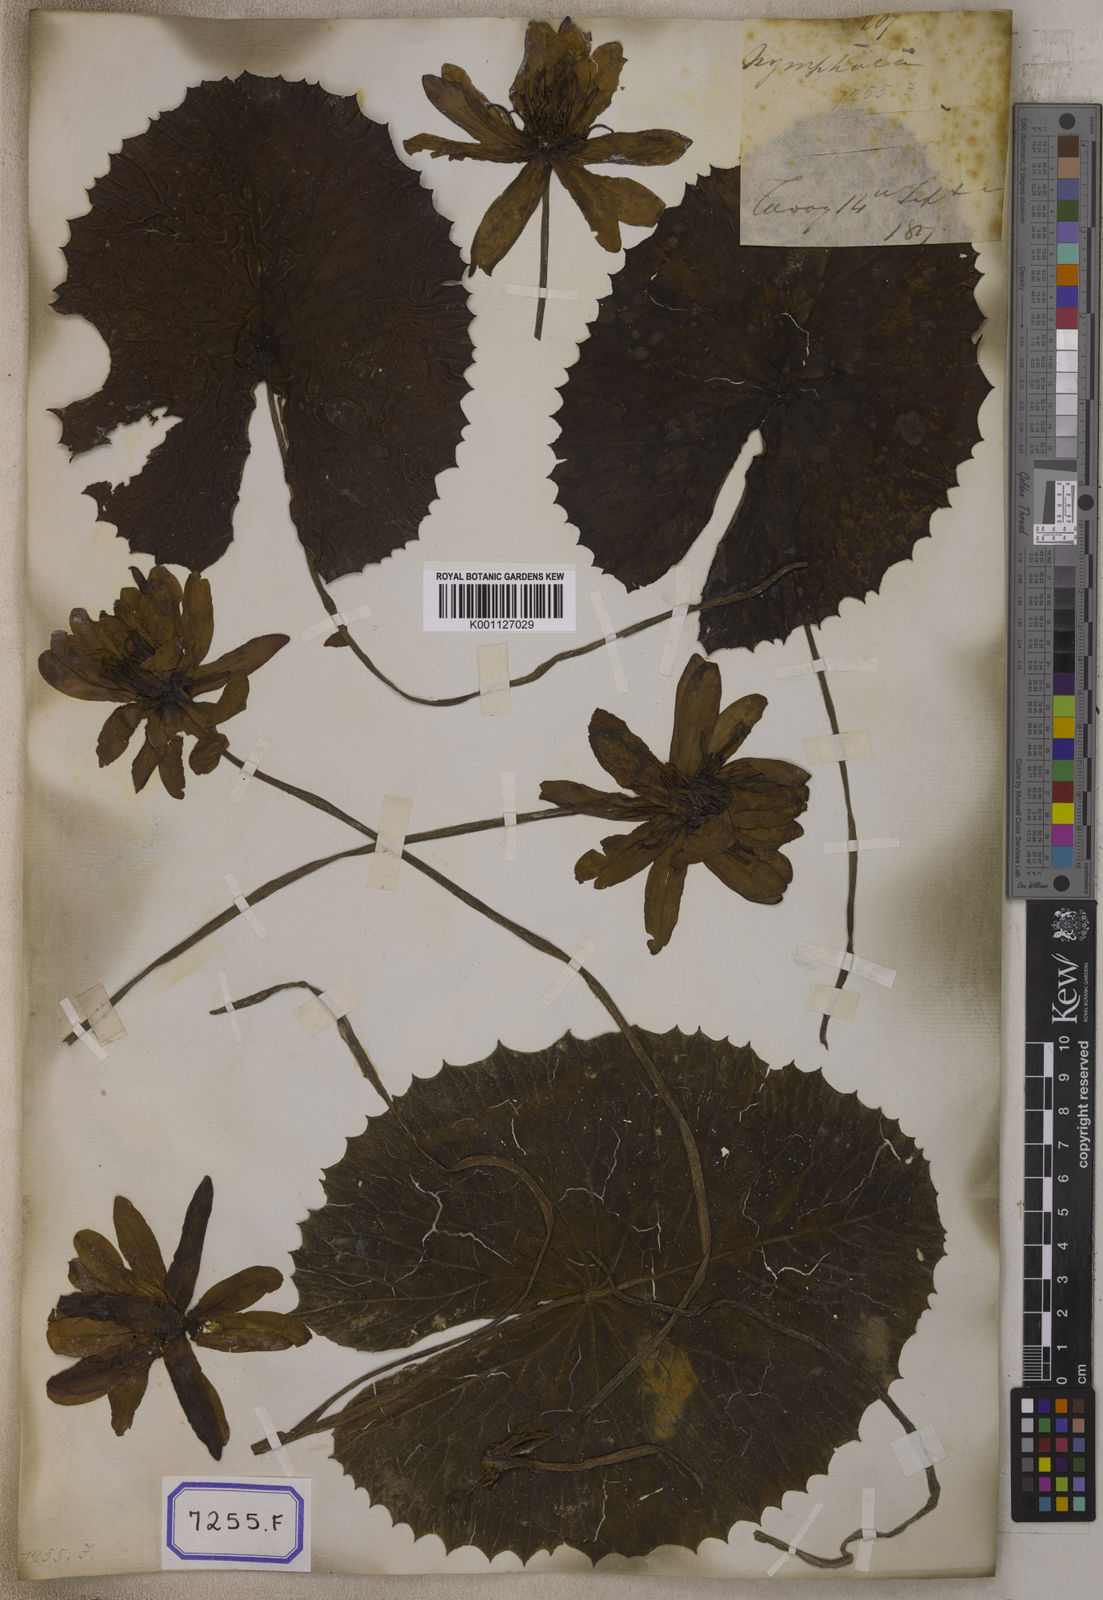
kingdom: Plantae
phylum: Tracheophyta
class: Magnoliopsida
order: Nymphaeales
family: Nymphaeaceae
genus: Nymphaea
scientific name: Nymphaea
